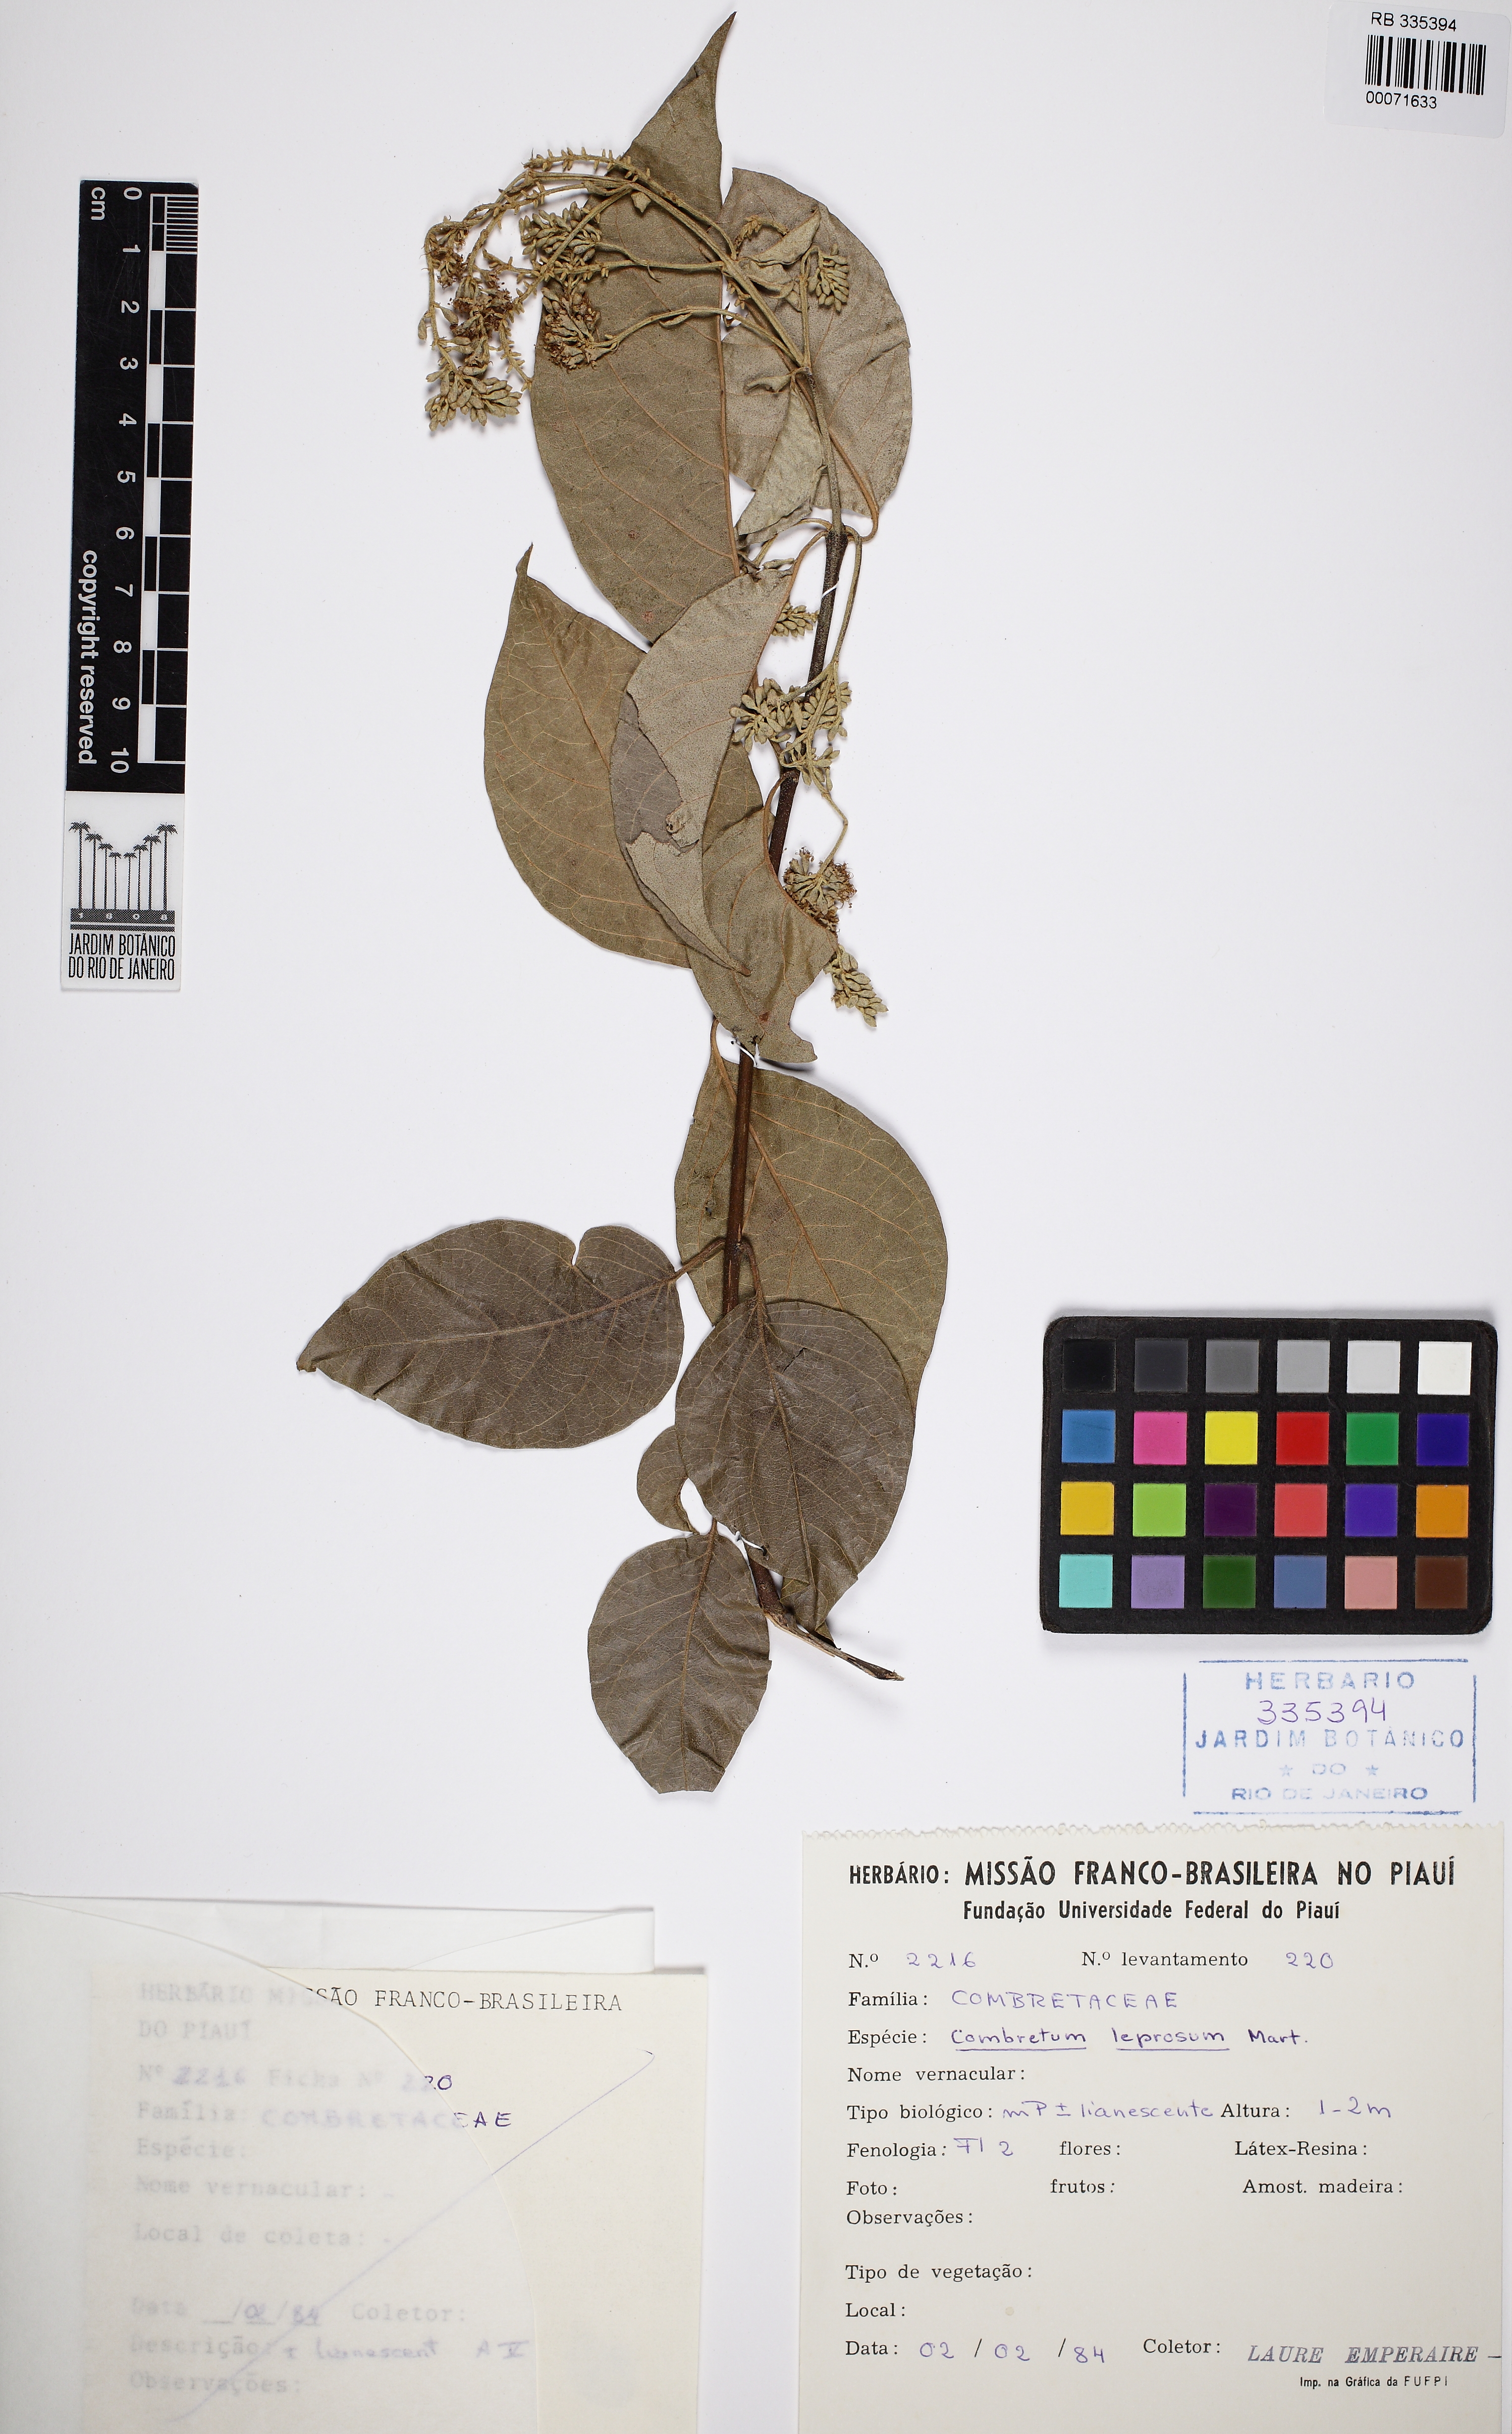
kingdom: Plantae
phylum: Tracheophyta
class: Magnoliopsida
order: Myrtales
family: Combretaceae
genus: Combretum
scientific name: Combretum leprosum
